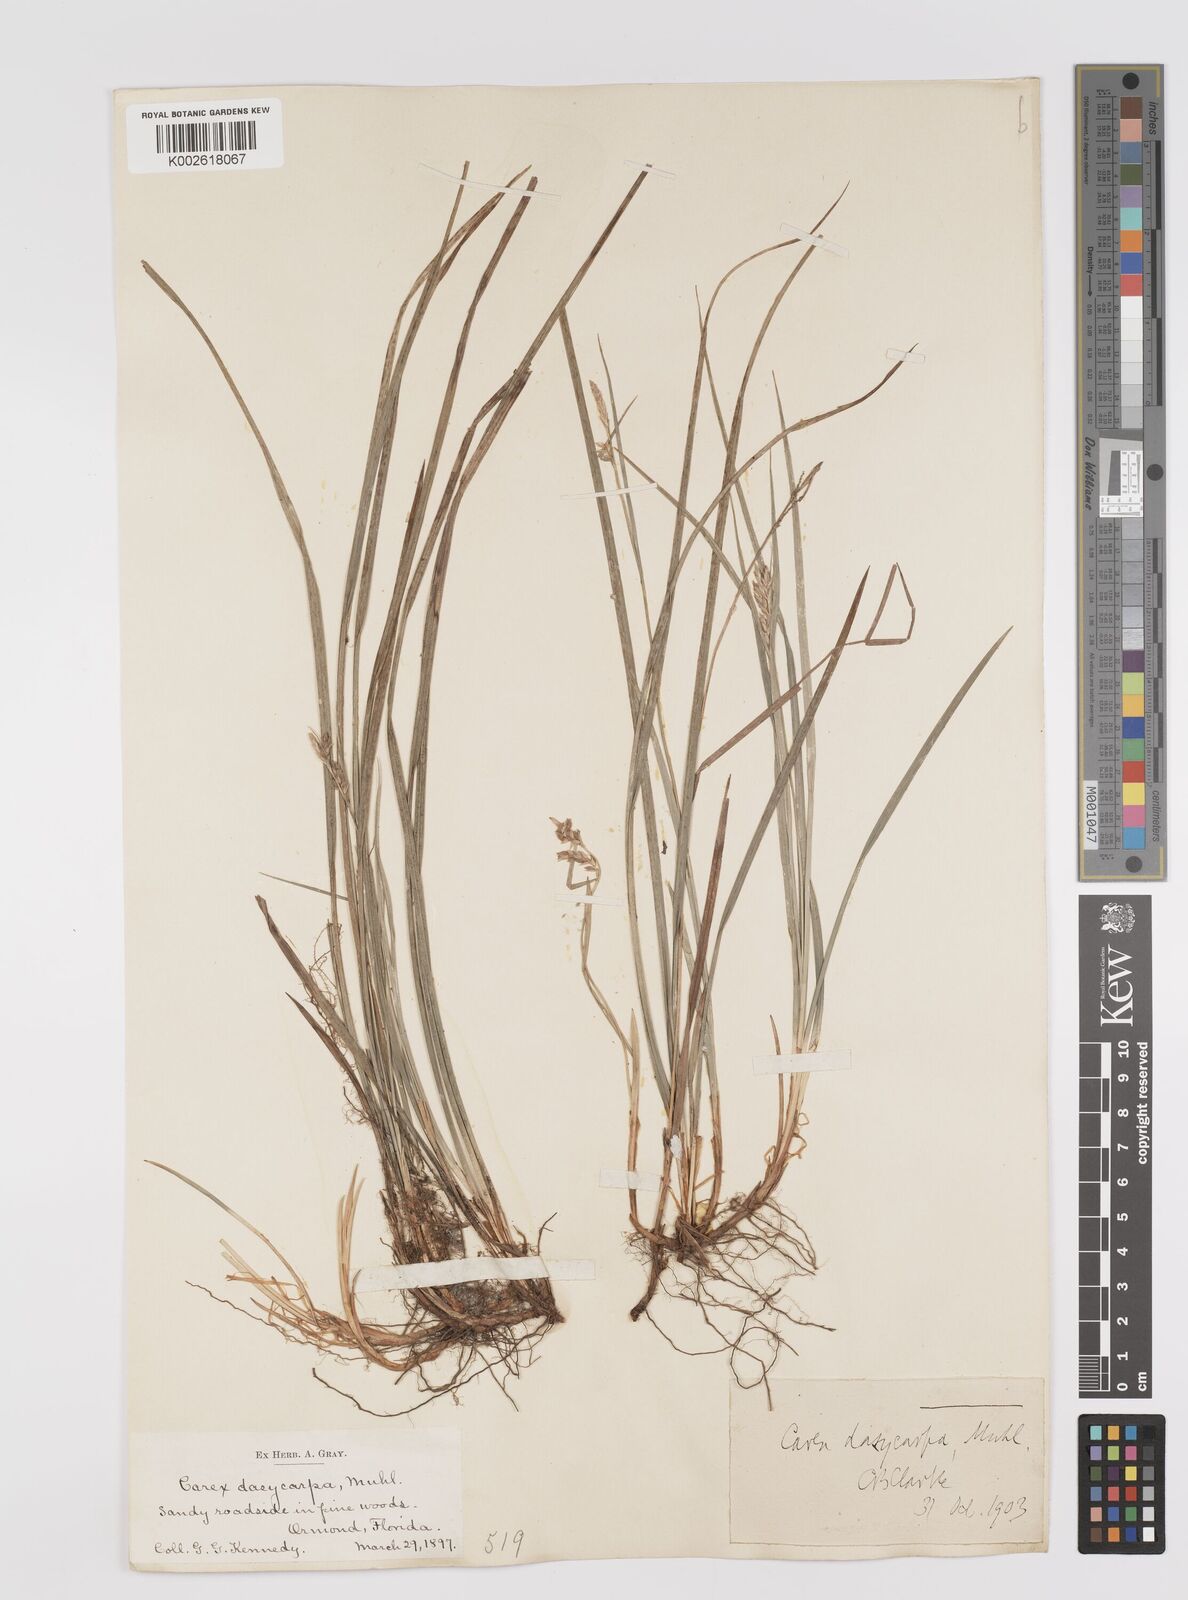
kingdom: Plantae
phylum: Tracheophyta
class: Liliopsida
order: Poales
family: Cyperaceae
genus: Carex
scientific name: Carex dasycarpa
